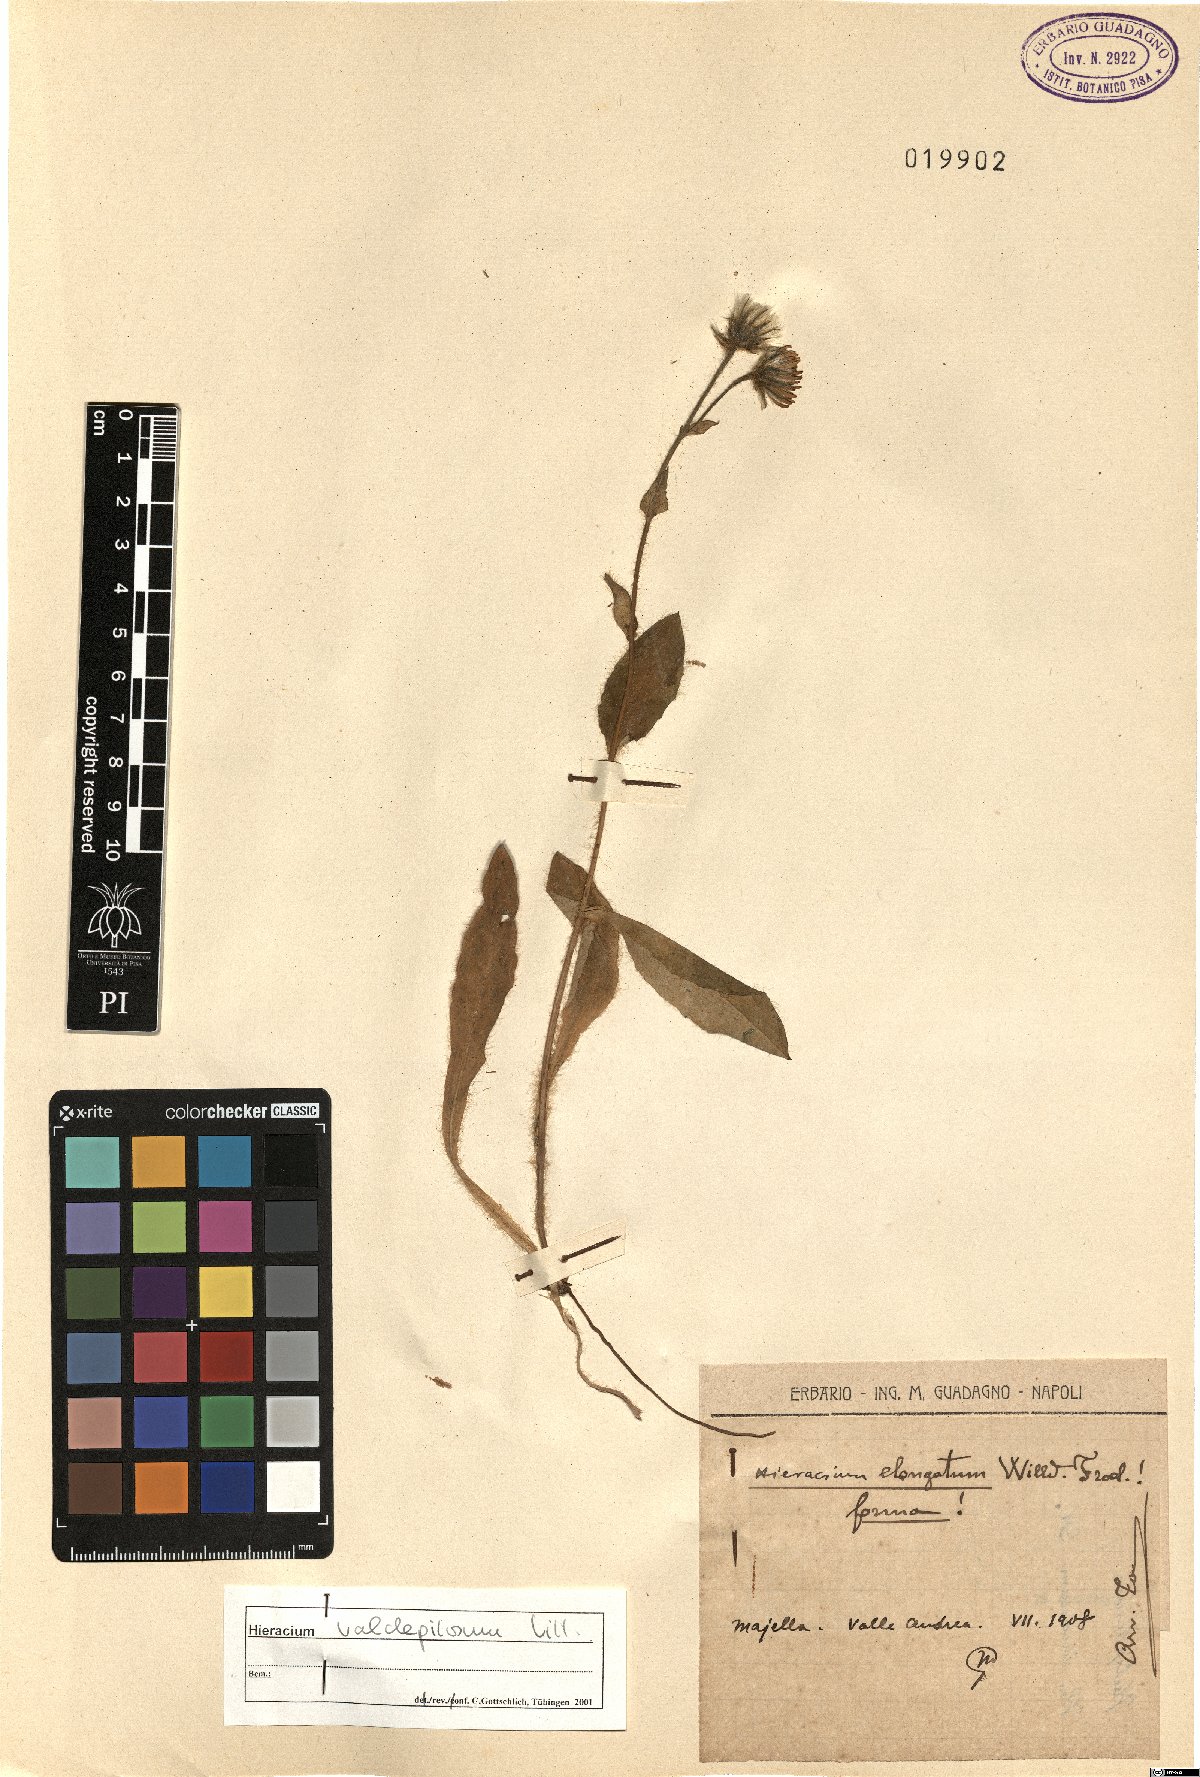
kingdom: Plantae
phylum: Tracheophyta
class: Magnoliopsida
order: Asterales
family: Asteraceae
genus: Hieracium
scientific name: Hieracium valdepilosum
